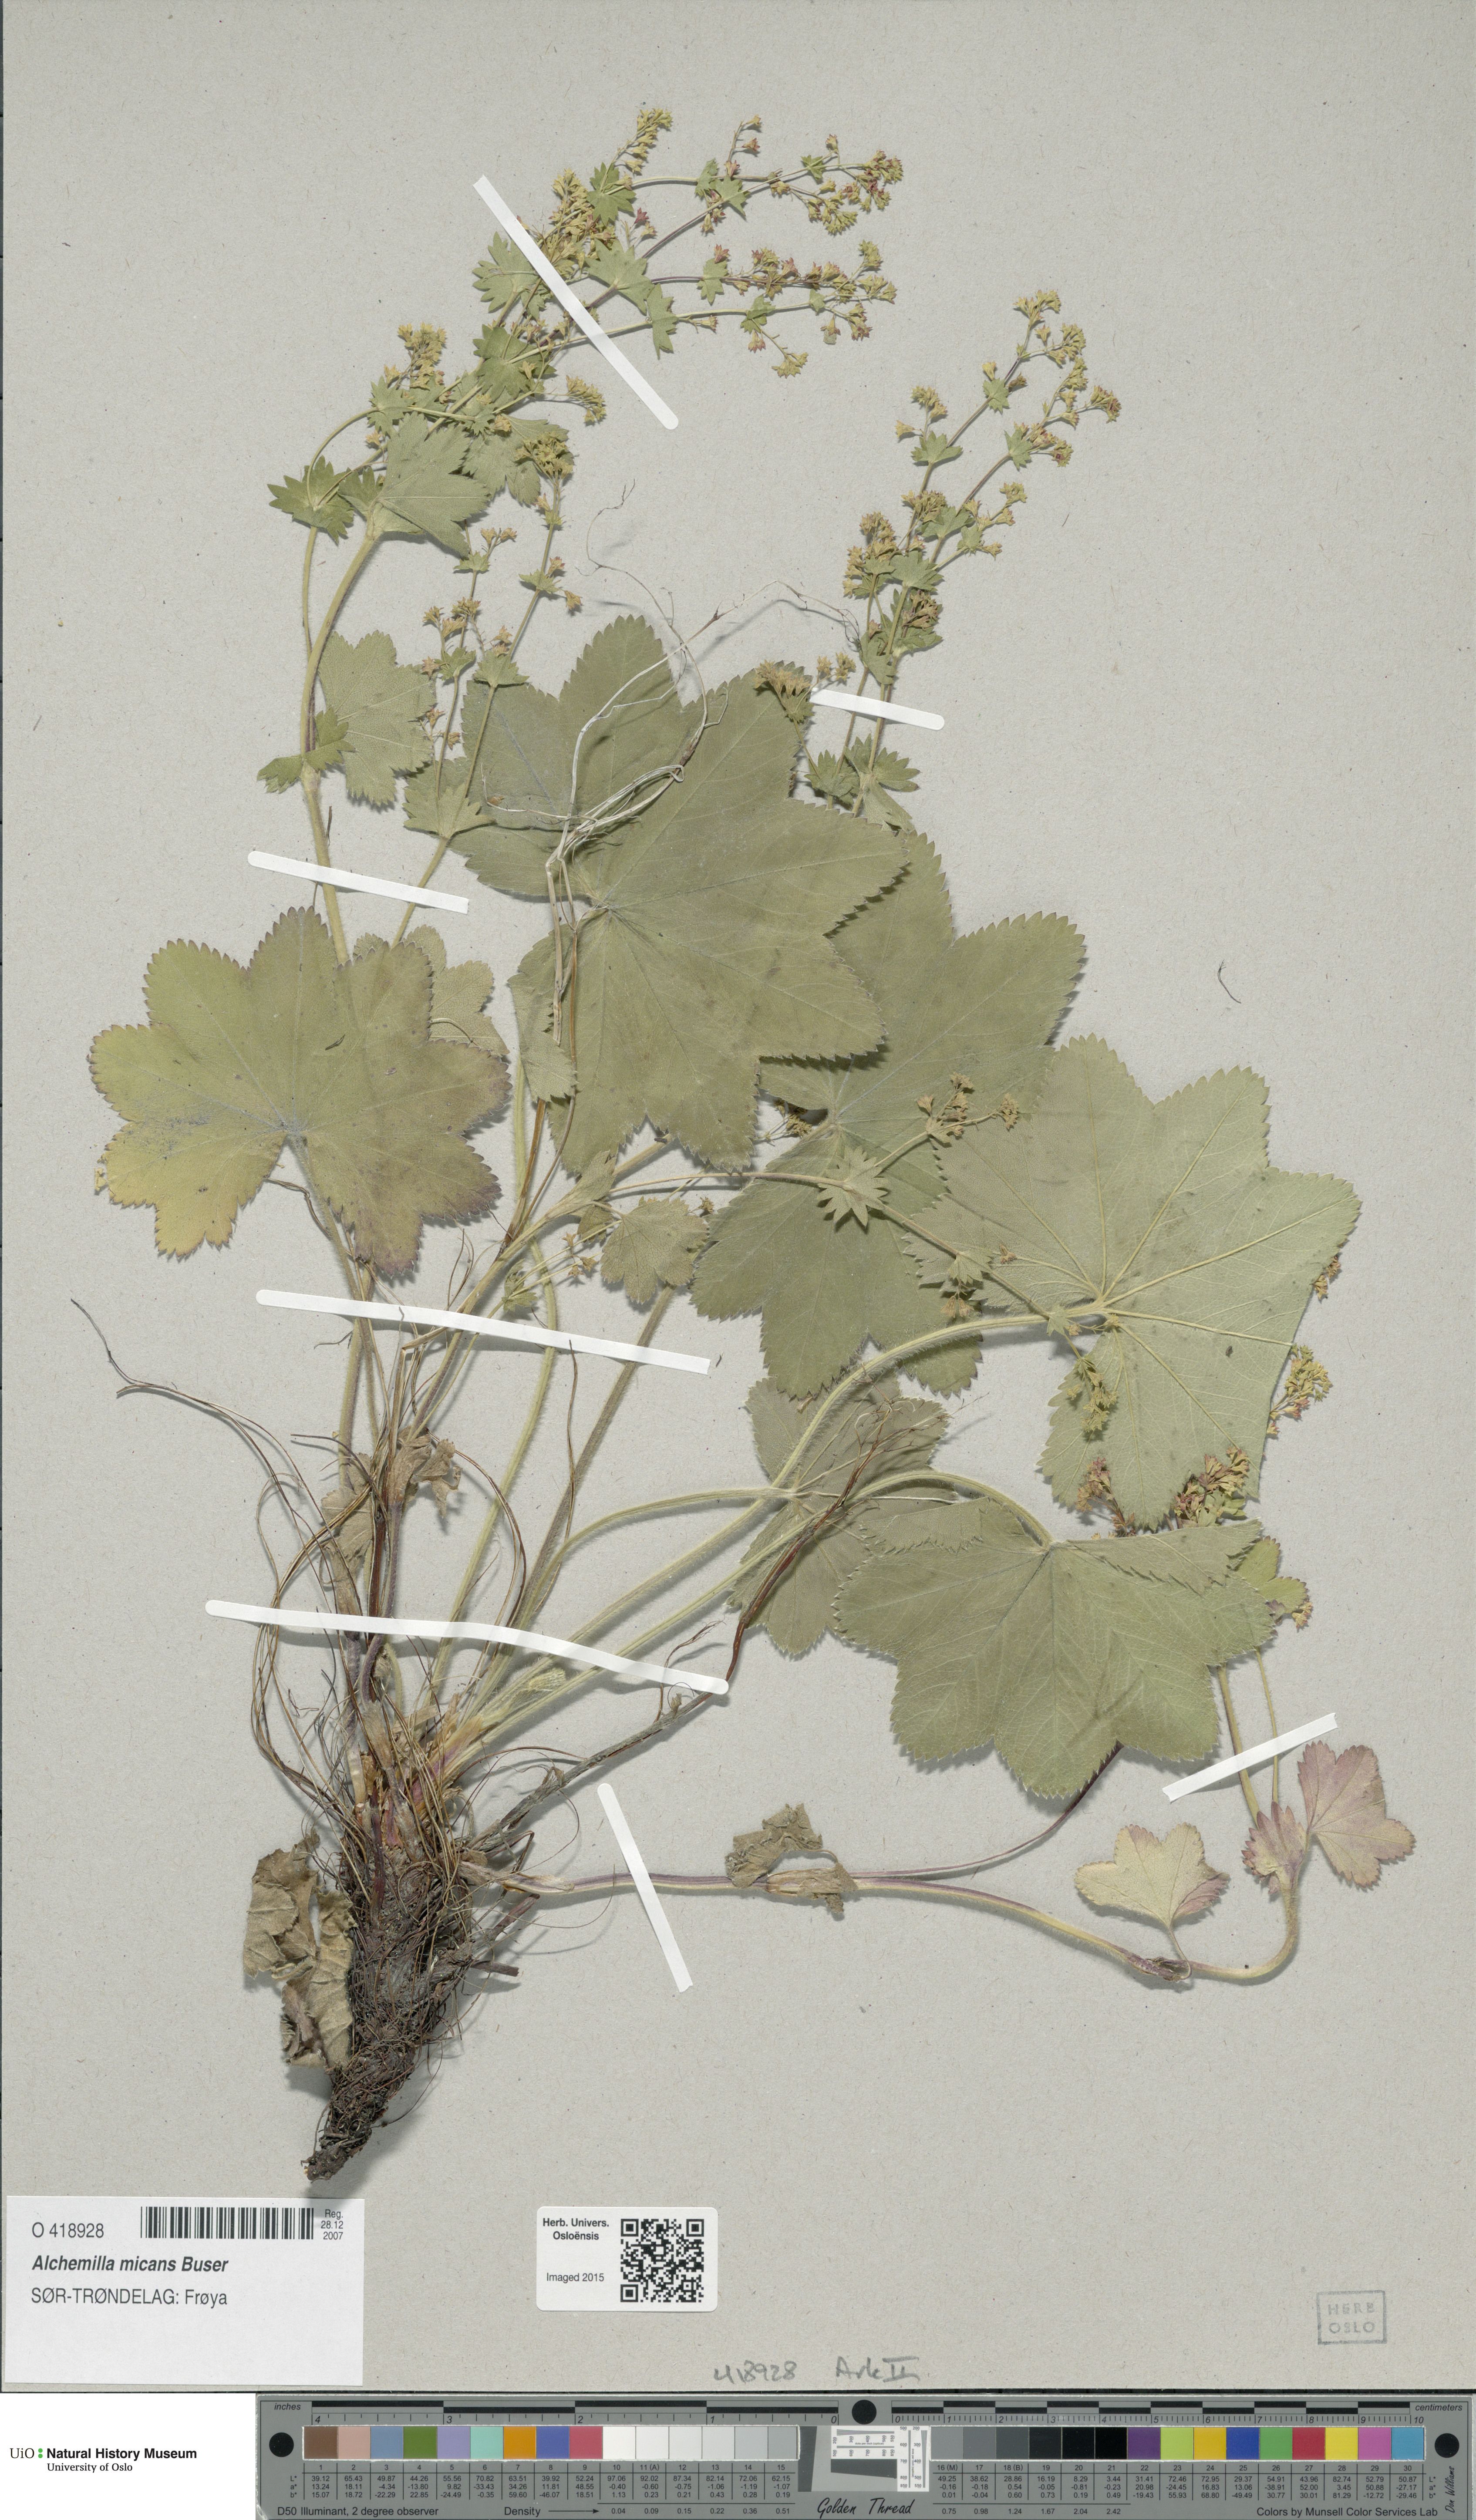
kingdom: Plantae
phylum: Tracheophyta
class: Magnoliopsida
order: Rosales
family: Rosaceae
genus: Alchemilla
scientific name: Alchemilla micans
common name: Gleaming lady's mantle
